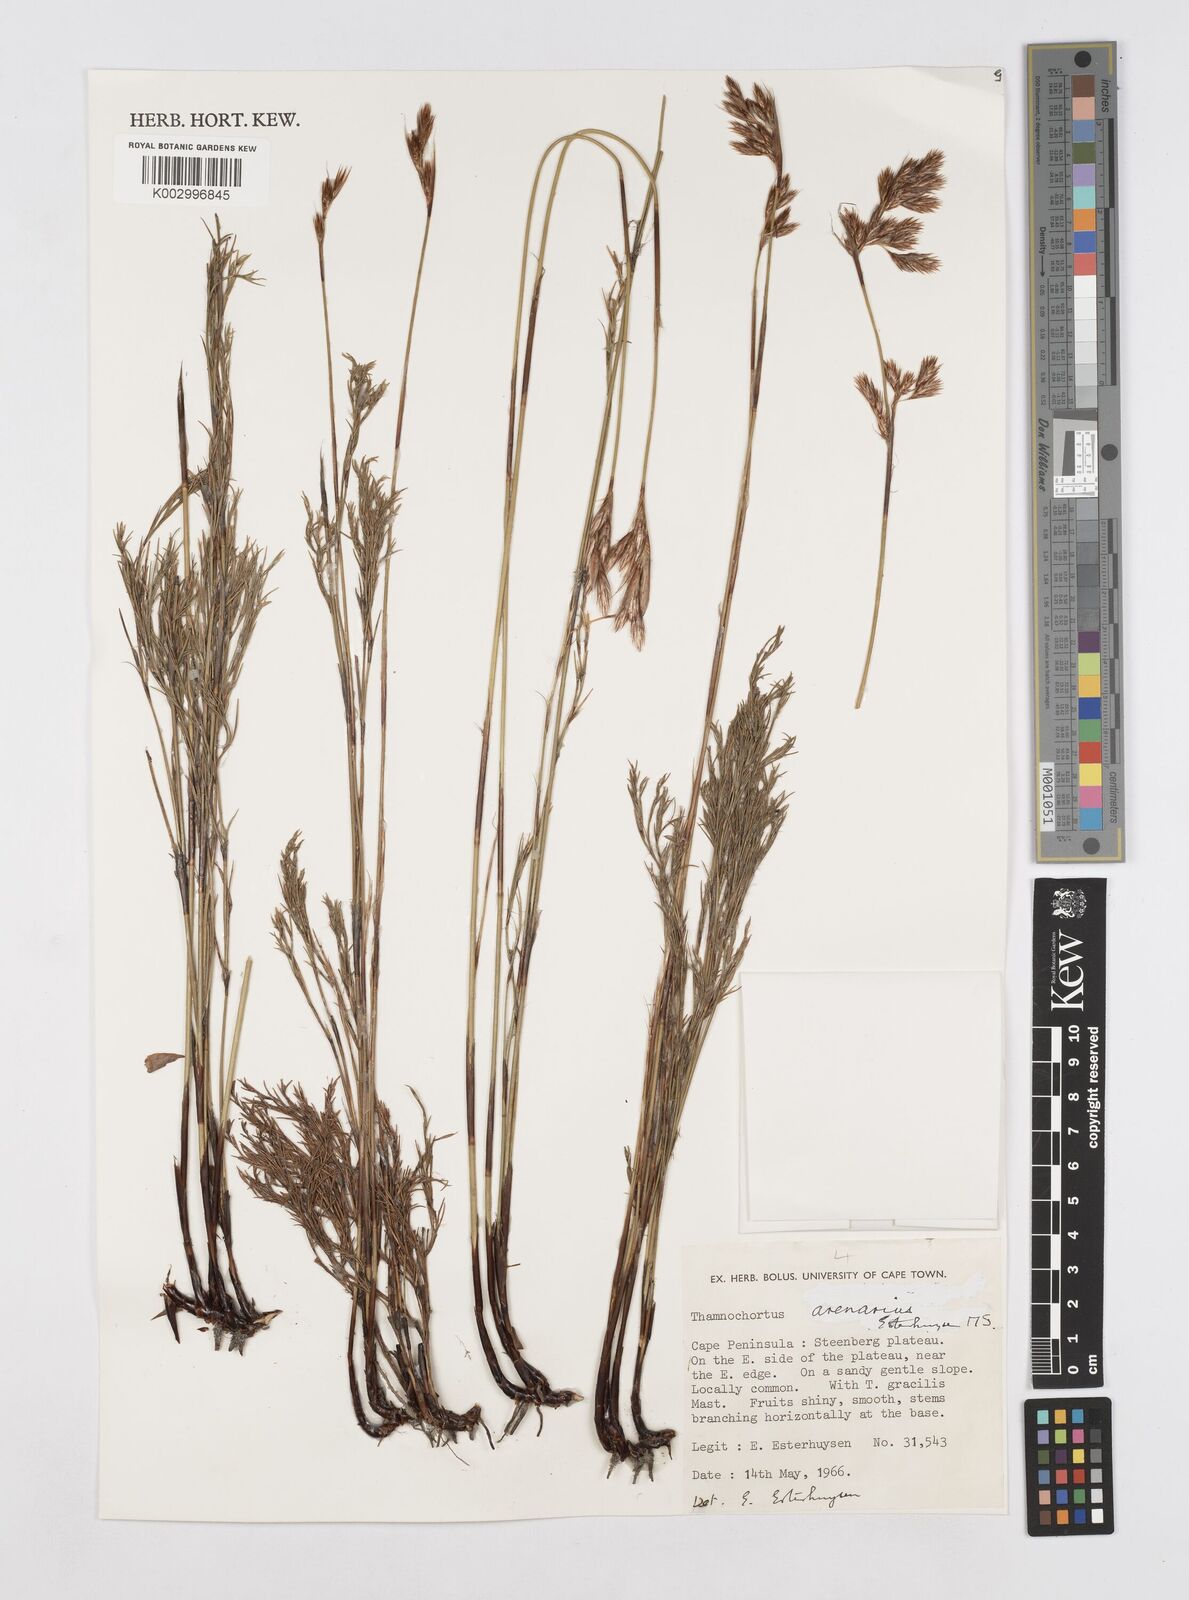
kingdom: Plantae
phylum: Tracheophyta
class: Liliopsida
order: Poales
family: Restionaceae
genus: Thamnochortus
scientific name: Thamnochortus arenarius
